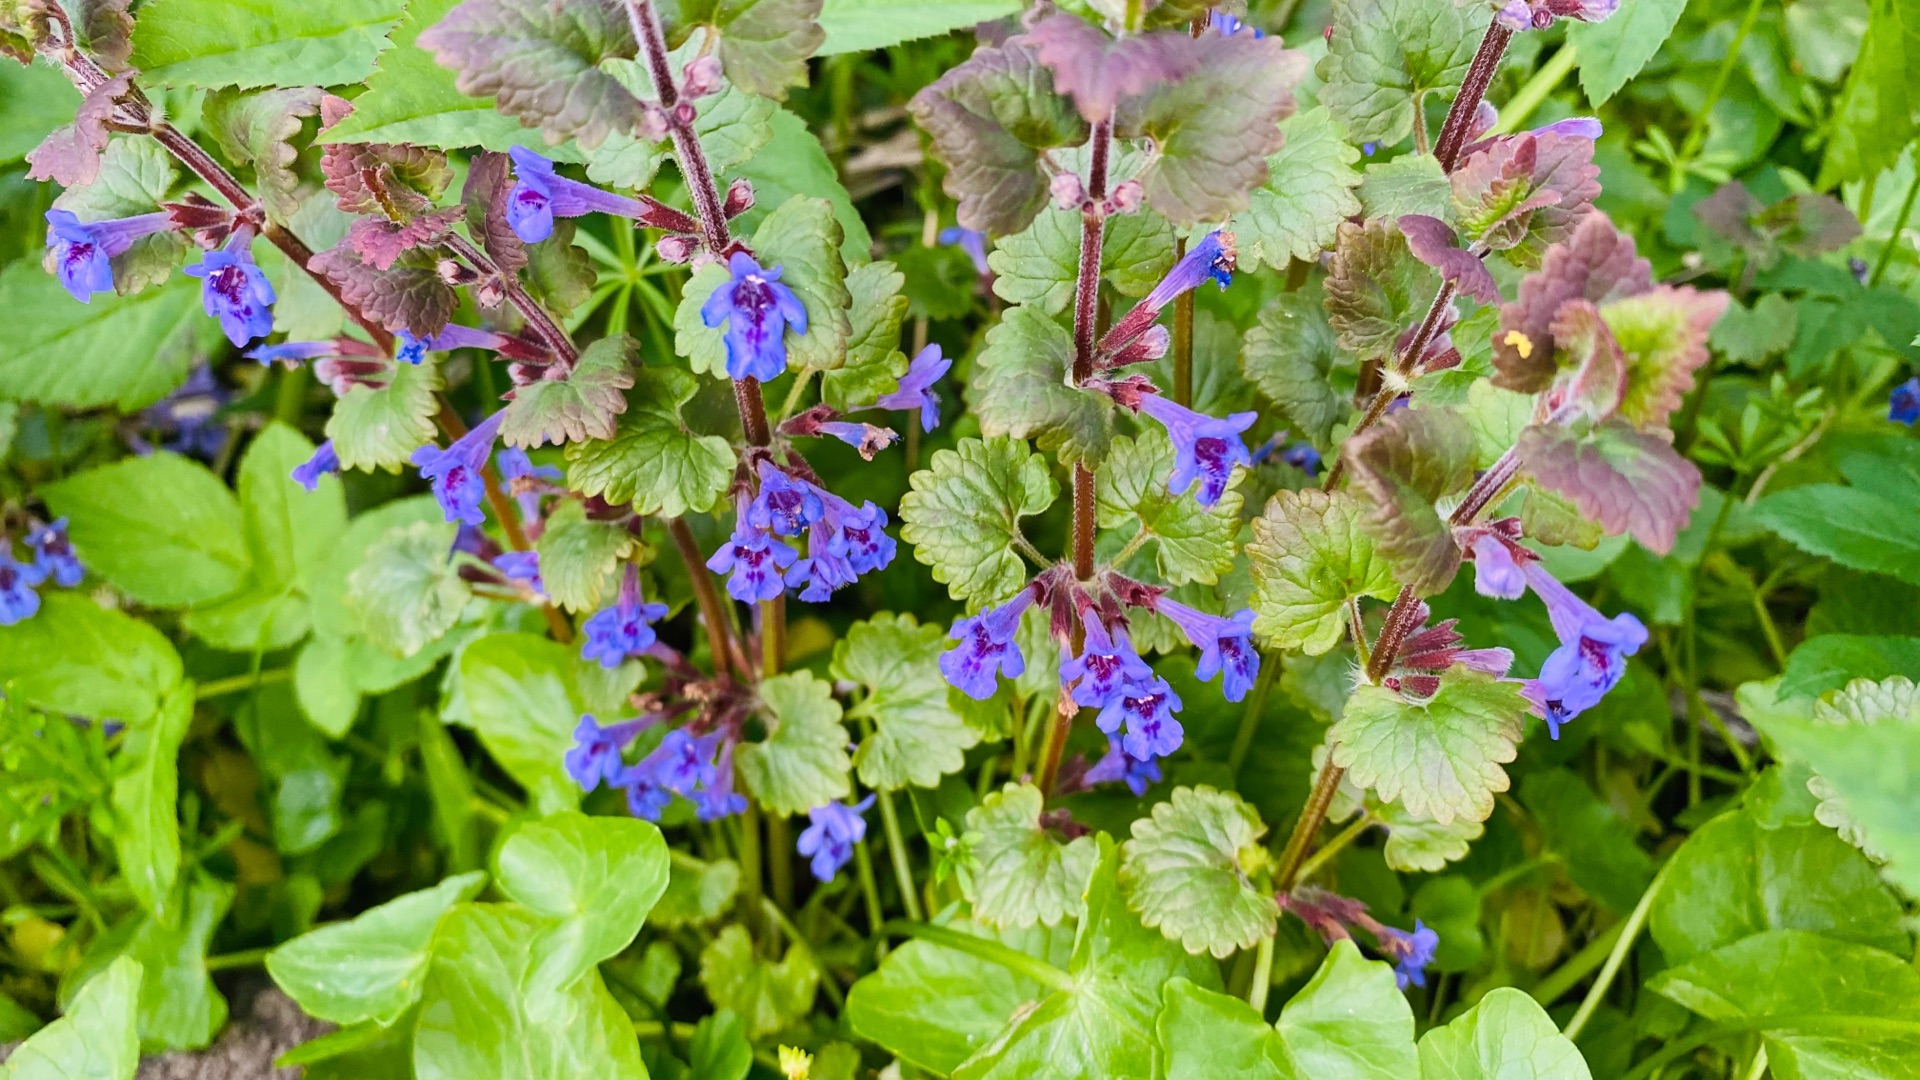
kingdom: Plantae
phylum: Tracheophyta
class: Magnoliopsida
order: Lamiales
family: Lamiaceae
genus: Glechoma
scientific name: Glechoma hederacea
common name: Korsknap
